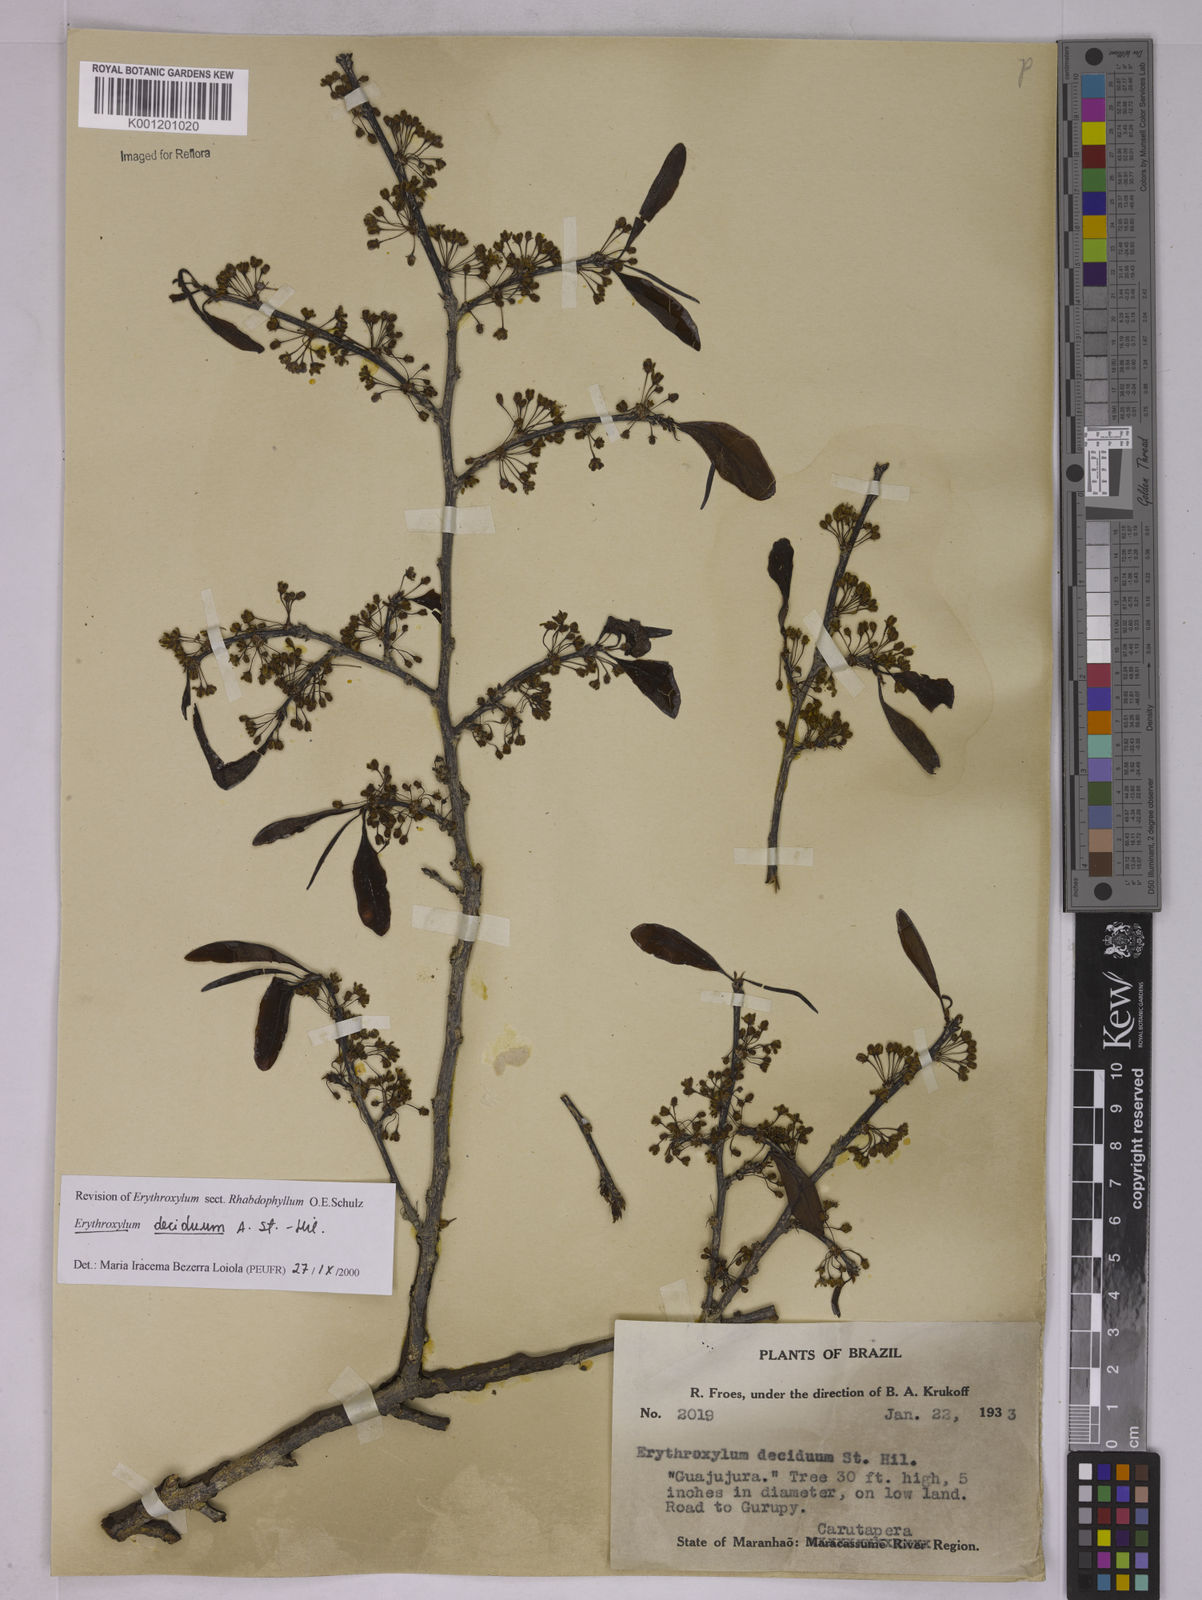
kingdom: Plantae
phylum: Tracheophyta
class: Magnoliopsida
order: Malpighiales
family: Erythroxylaceae
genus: Erythroxylum
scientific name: Erythroxylum deciduum
